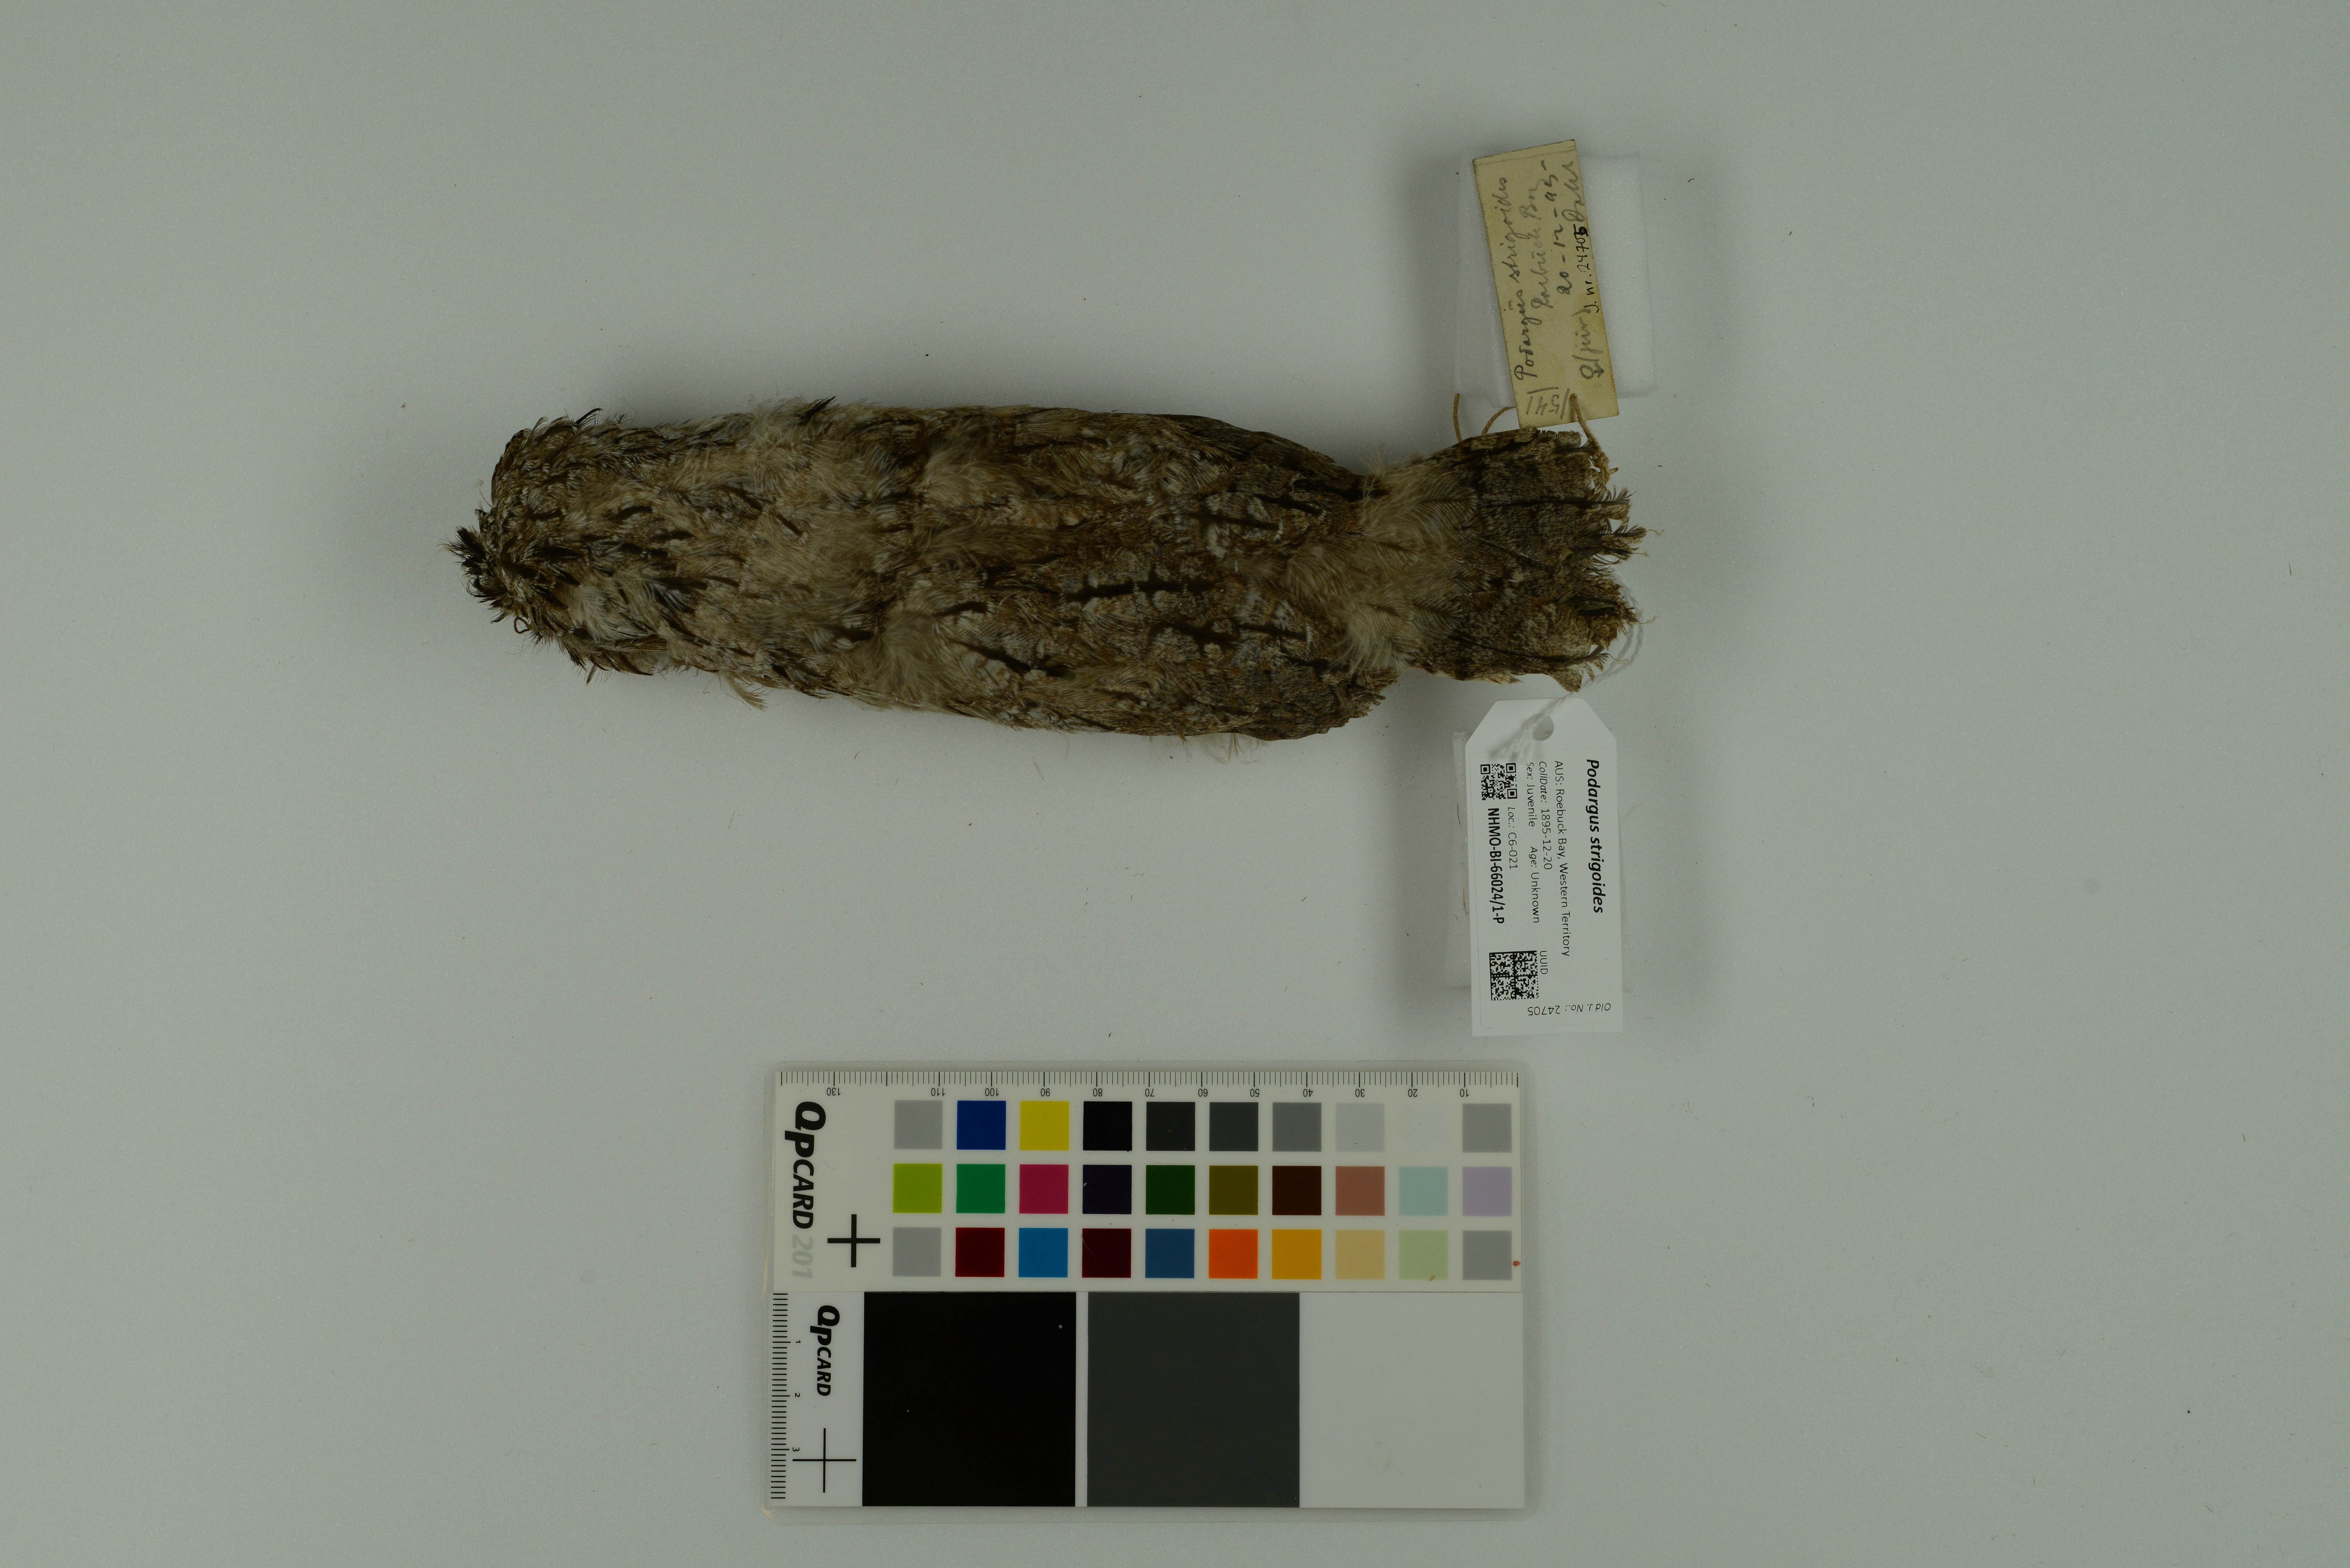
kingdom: Animalia
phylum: Chordata
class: Aves
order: Caprimulgiformes
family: Podargidae
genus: Podargus
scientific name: Podargus strigoides
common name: Tawny frogmouth
